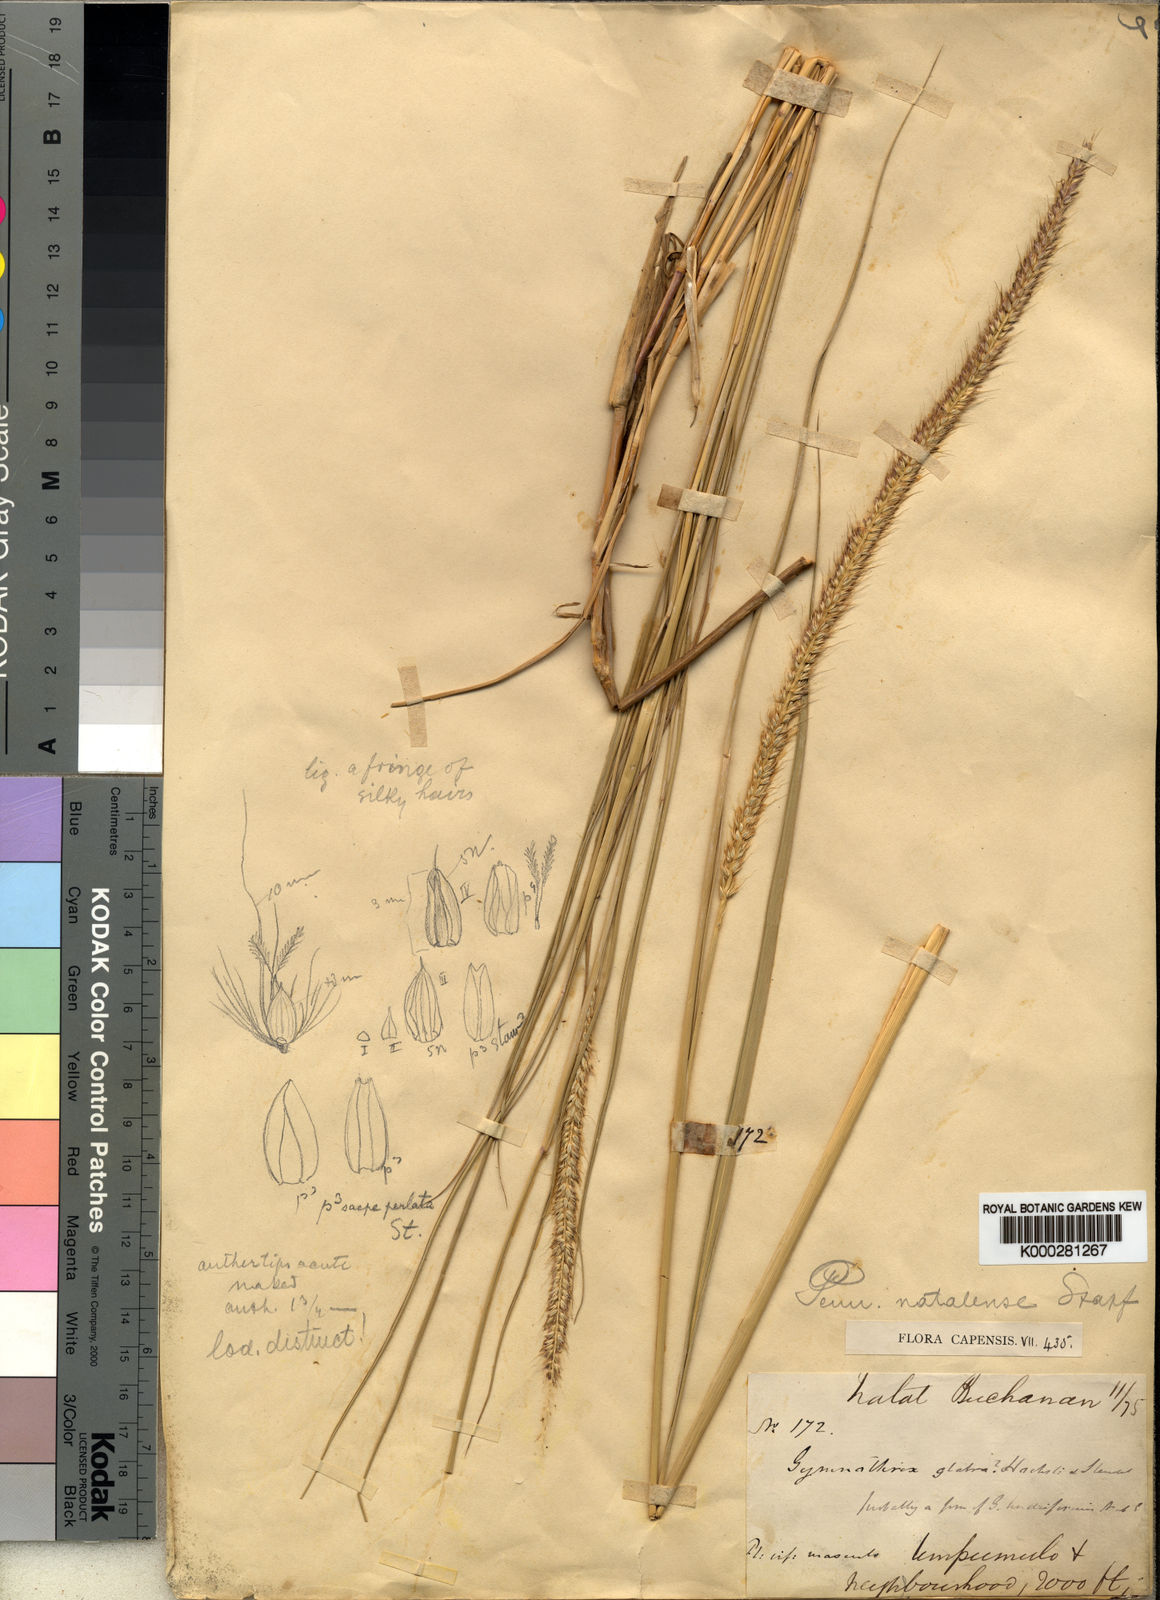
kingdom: Plantae
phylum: Tracheophyta
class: Liliopsida
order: Poales
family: Poaceae
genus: Cenchrus
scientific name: Cenchrus caudatus
